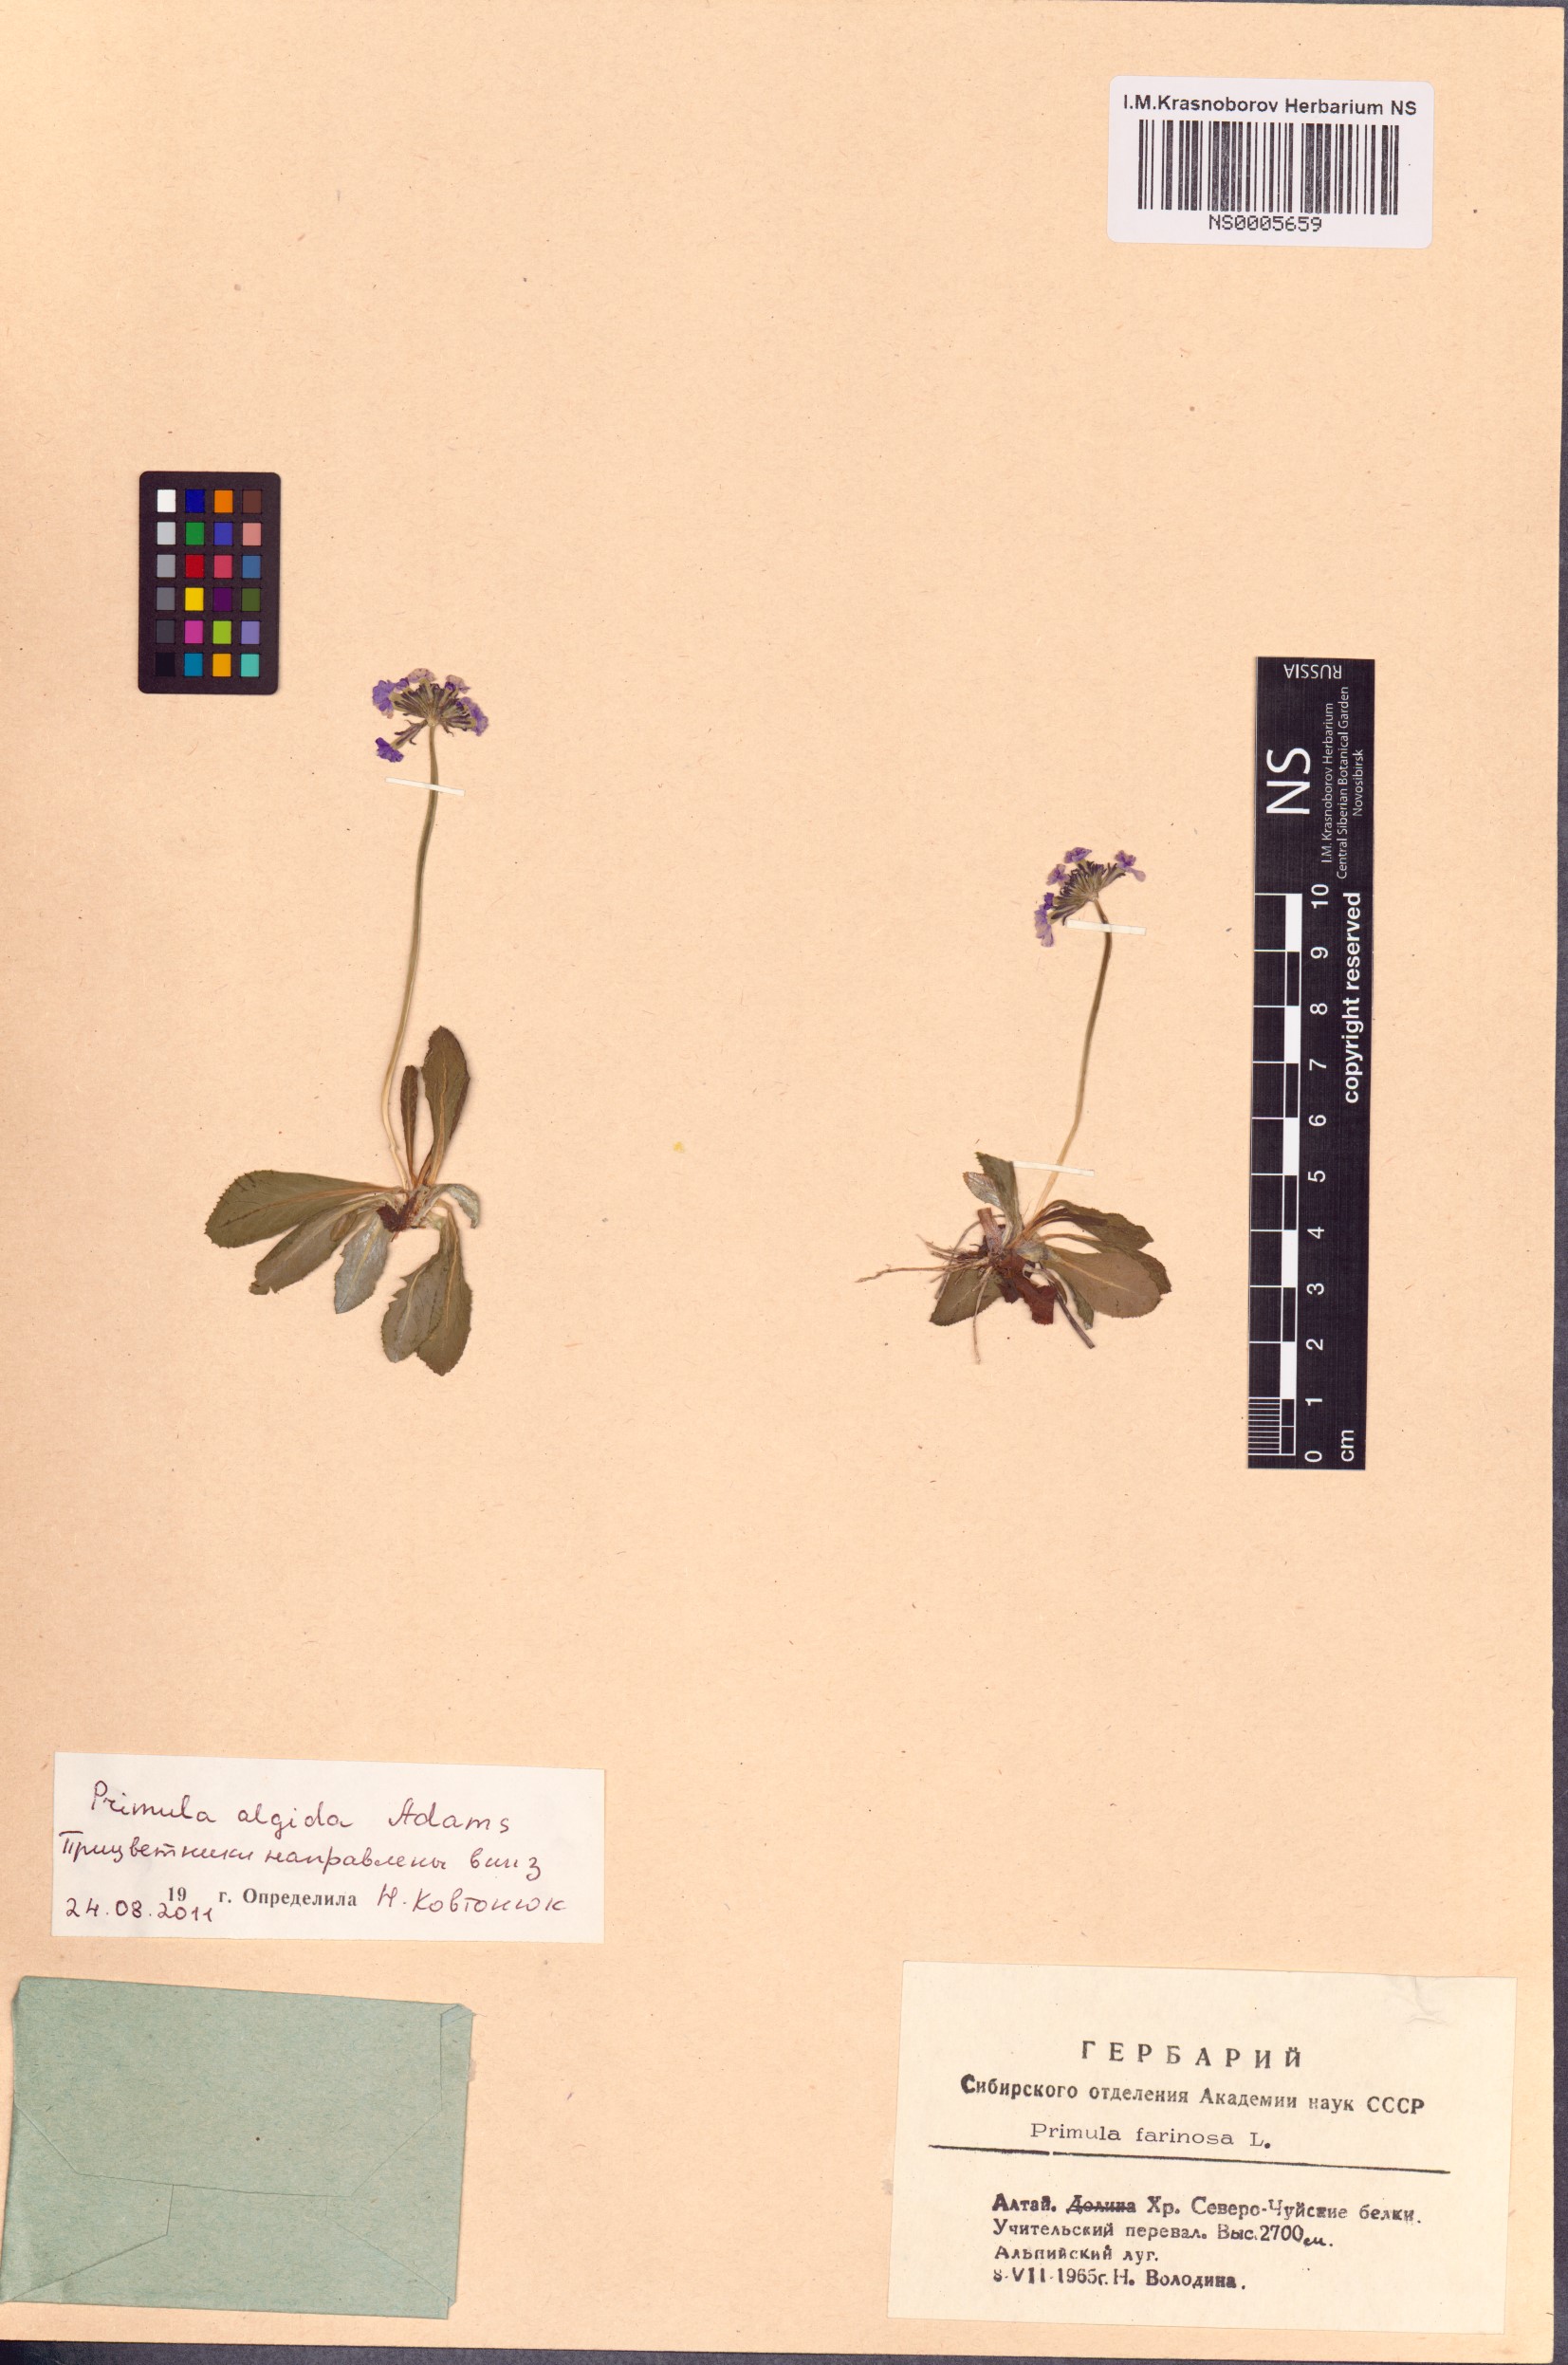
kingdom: Plantae
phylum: Tracheophyta
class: Magnoliopsida
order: Ericales
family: Primulaceae
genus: Primula
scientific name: Primula algida
